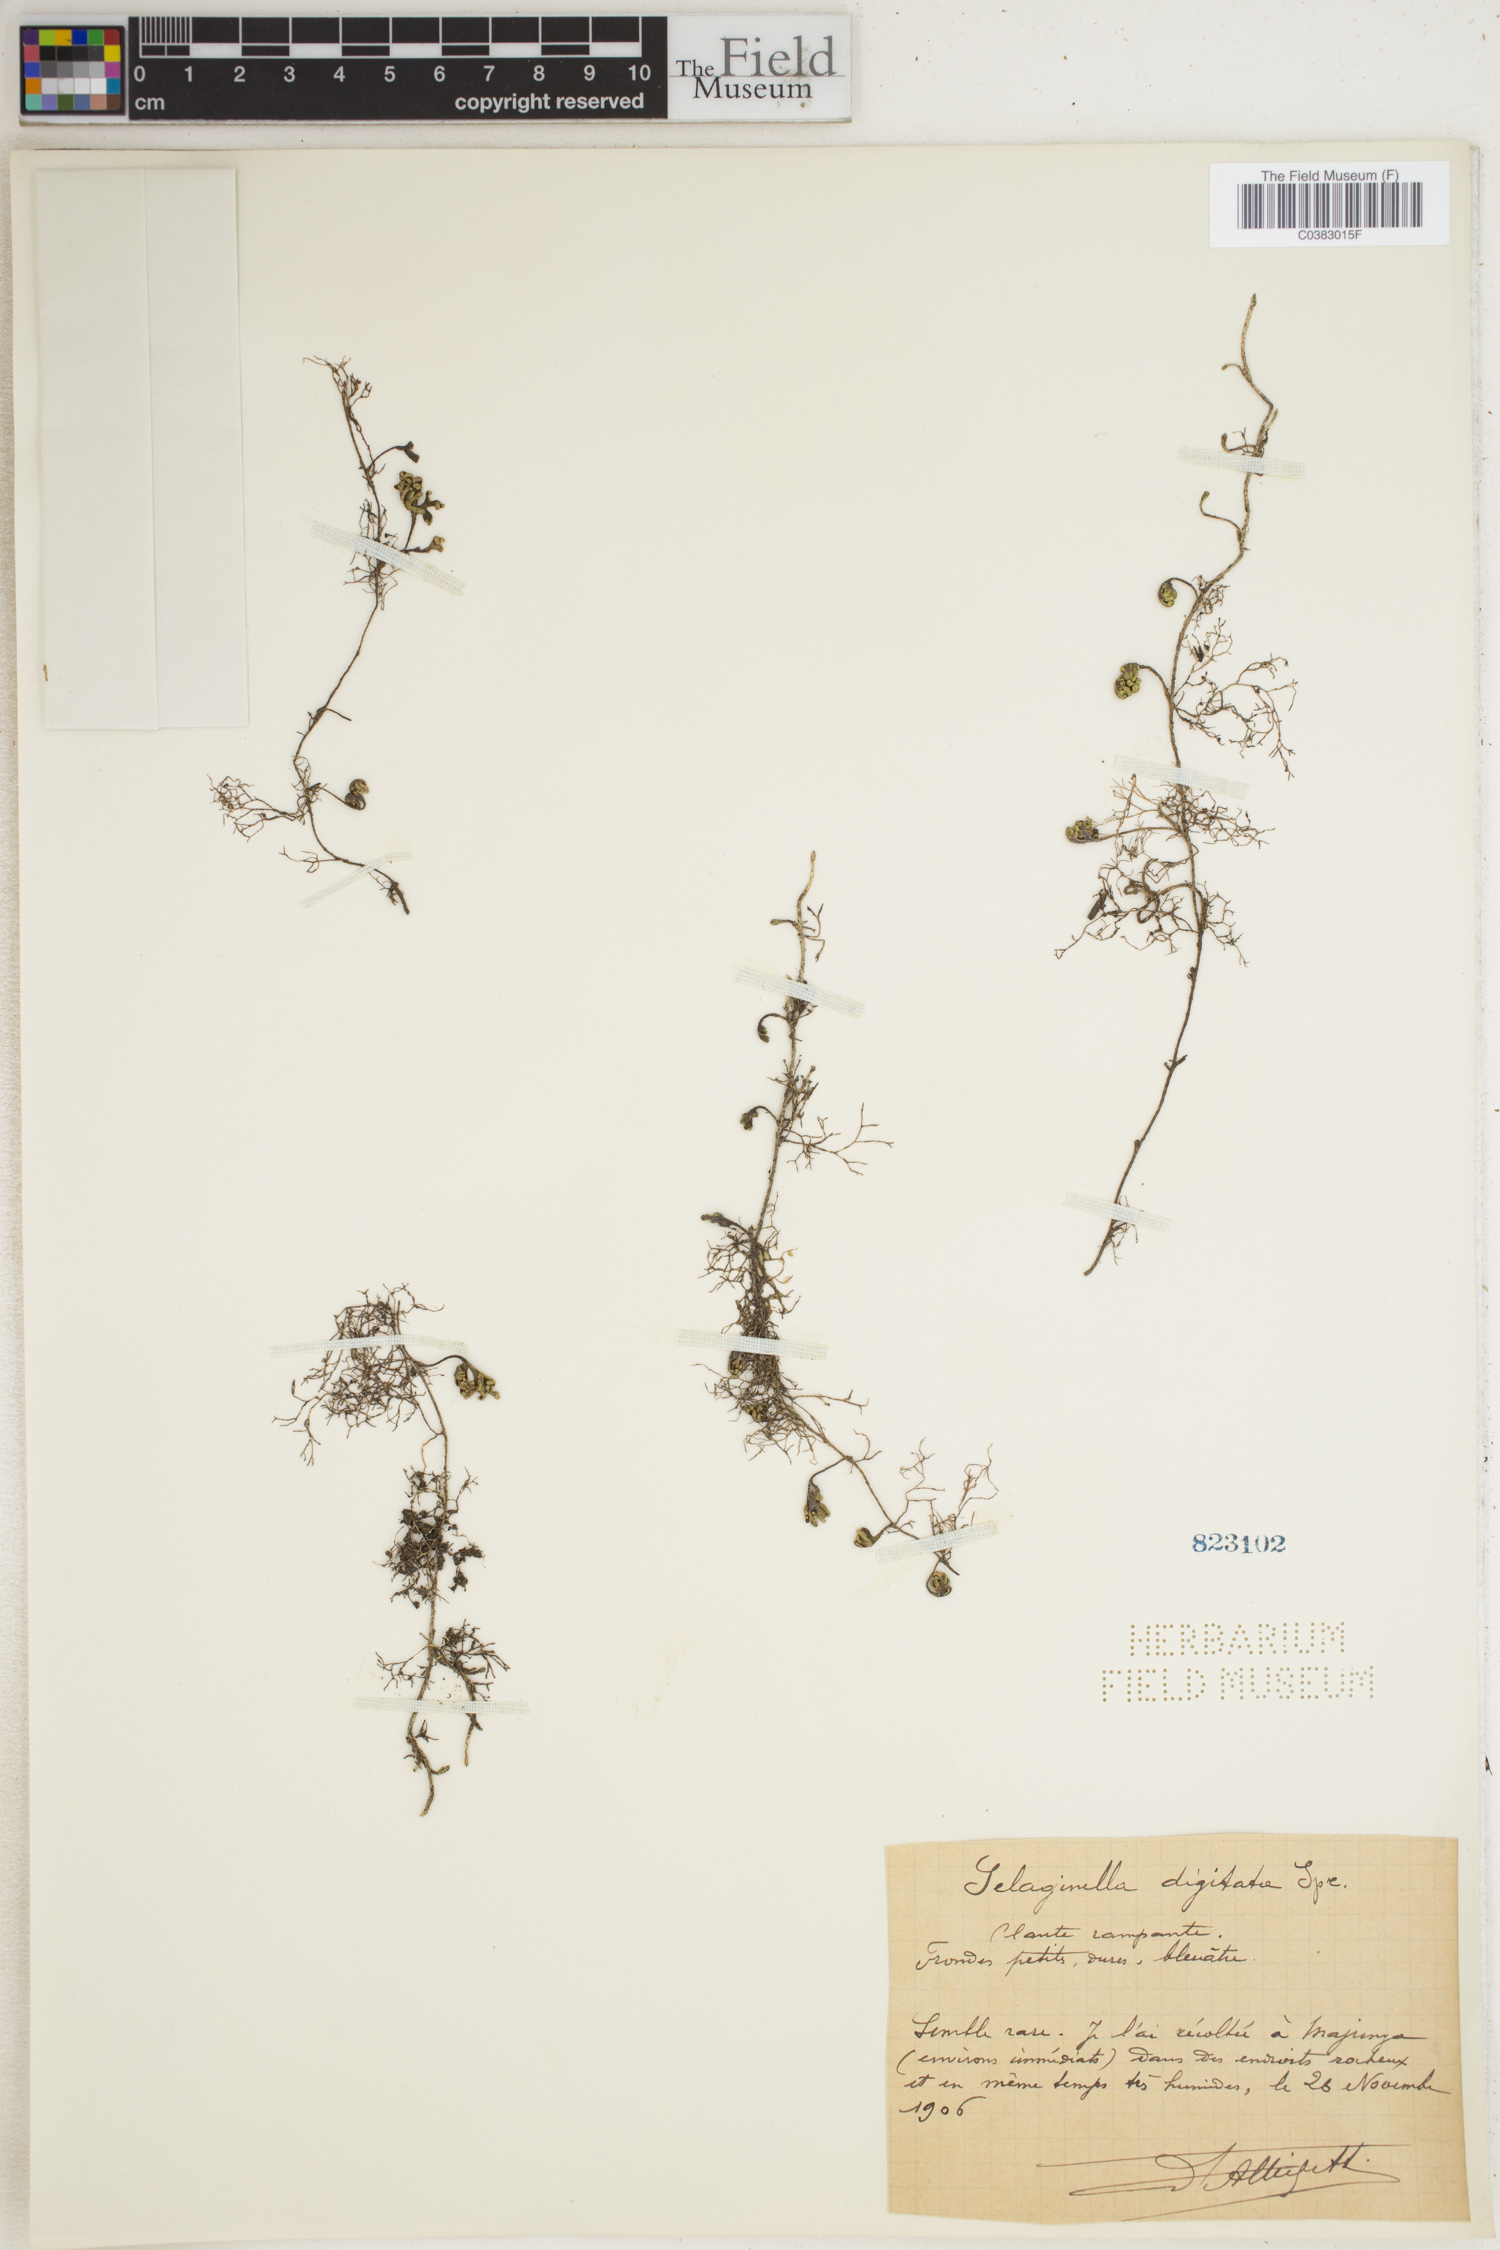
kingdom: Plantae
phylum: Tracheophyta
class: Lycopodiopsida
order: Selaginellales
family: Selaginellaceae
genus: Selaginella
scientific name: Selaginella digitata
